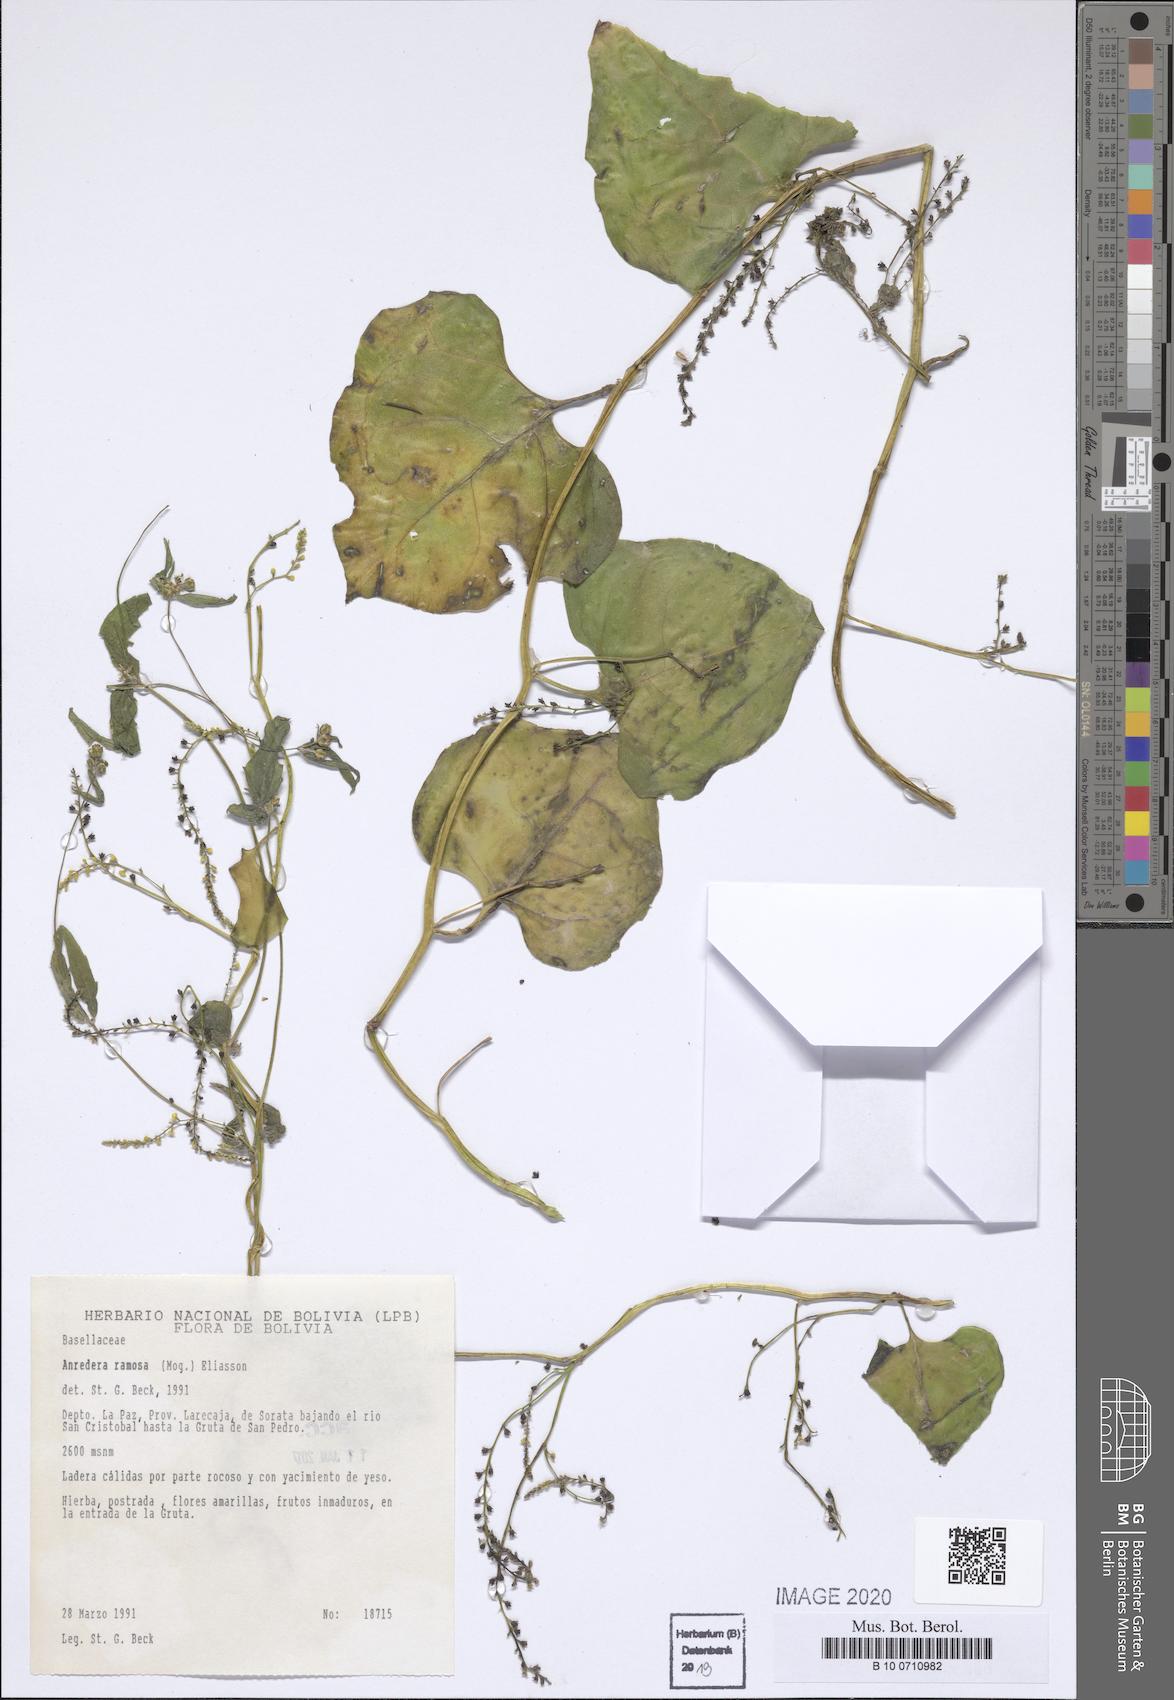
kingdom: Plantae
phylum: Tracheophyta
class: Magnoliopsida
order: Caryophyllales
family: Basellaceae
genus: Anredera
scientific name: Anredera ramosa
